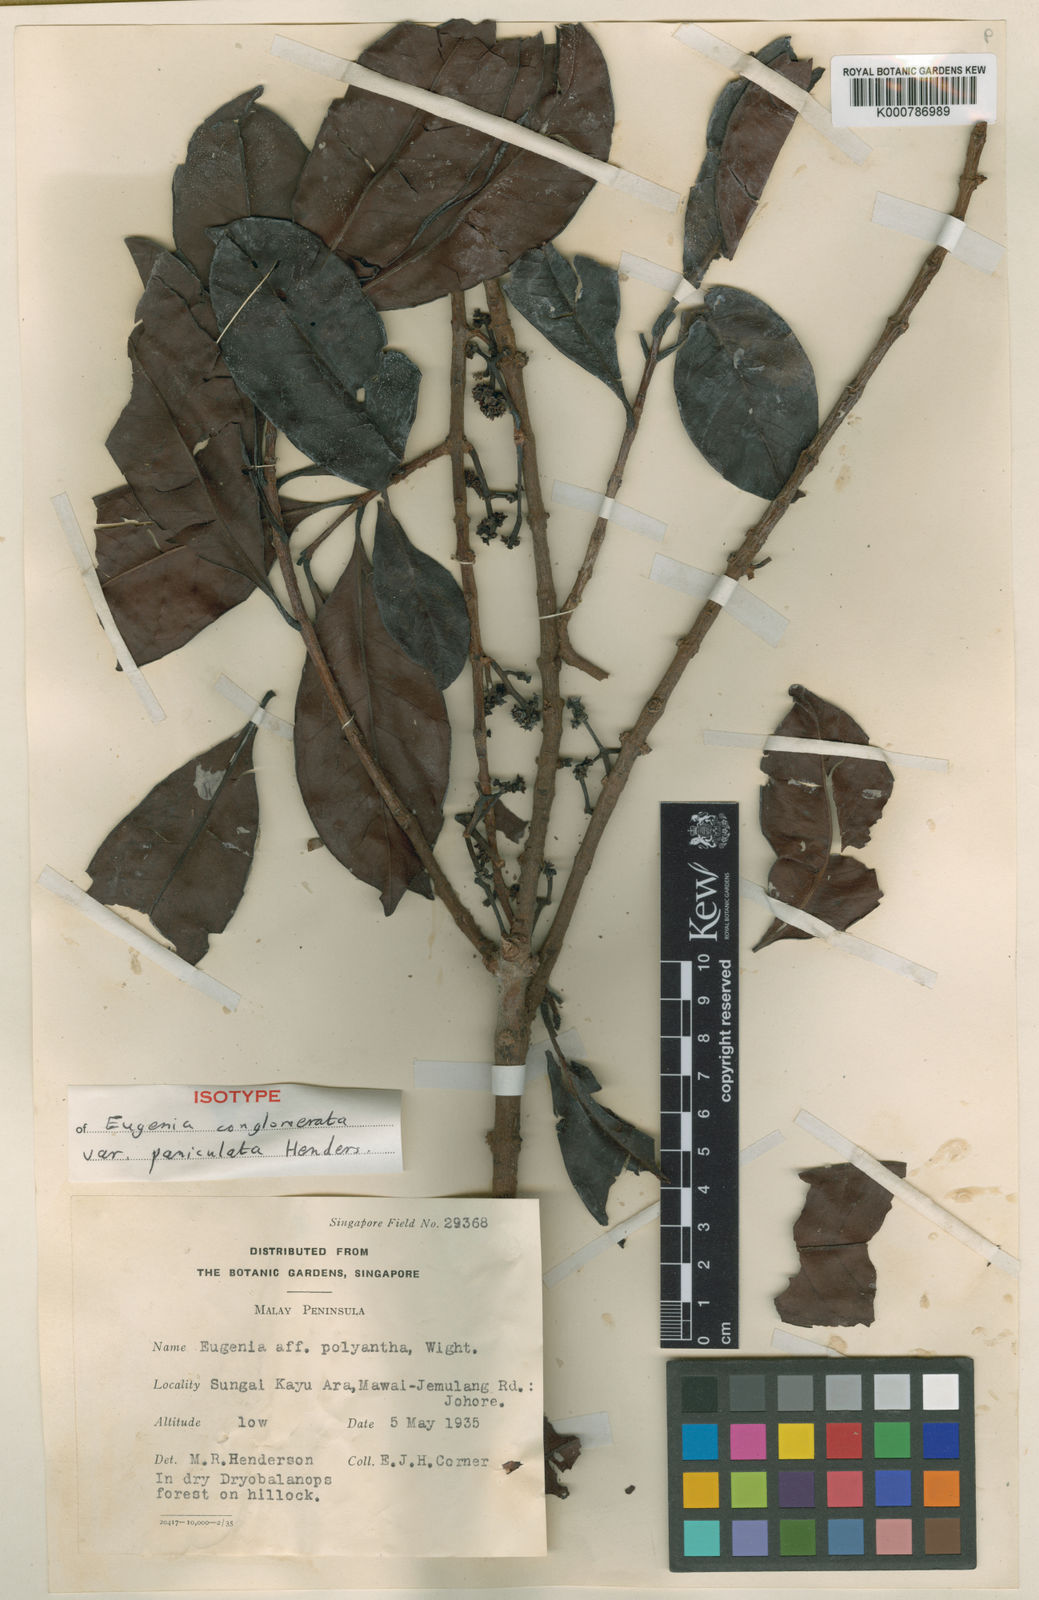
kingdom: Plantae
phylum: Tracheophyta
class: Magnoliopsida
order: Myrtales
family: Myrtaceae
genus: Syzygium
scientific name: Syzygium conglomeratum
